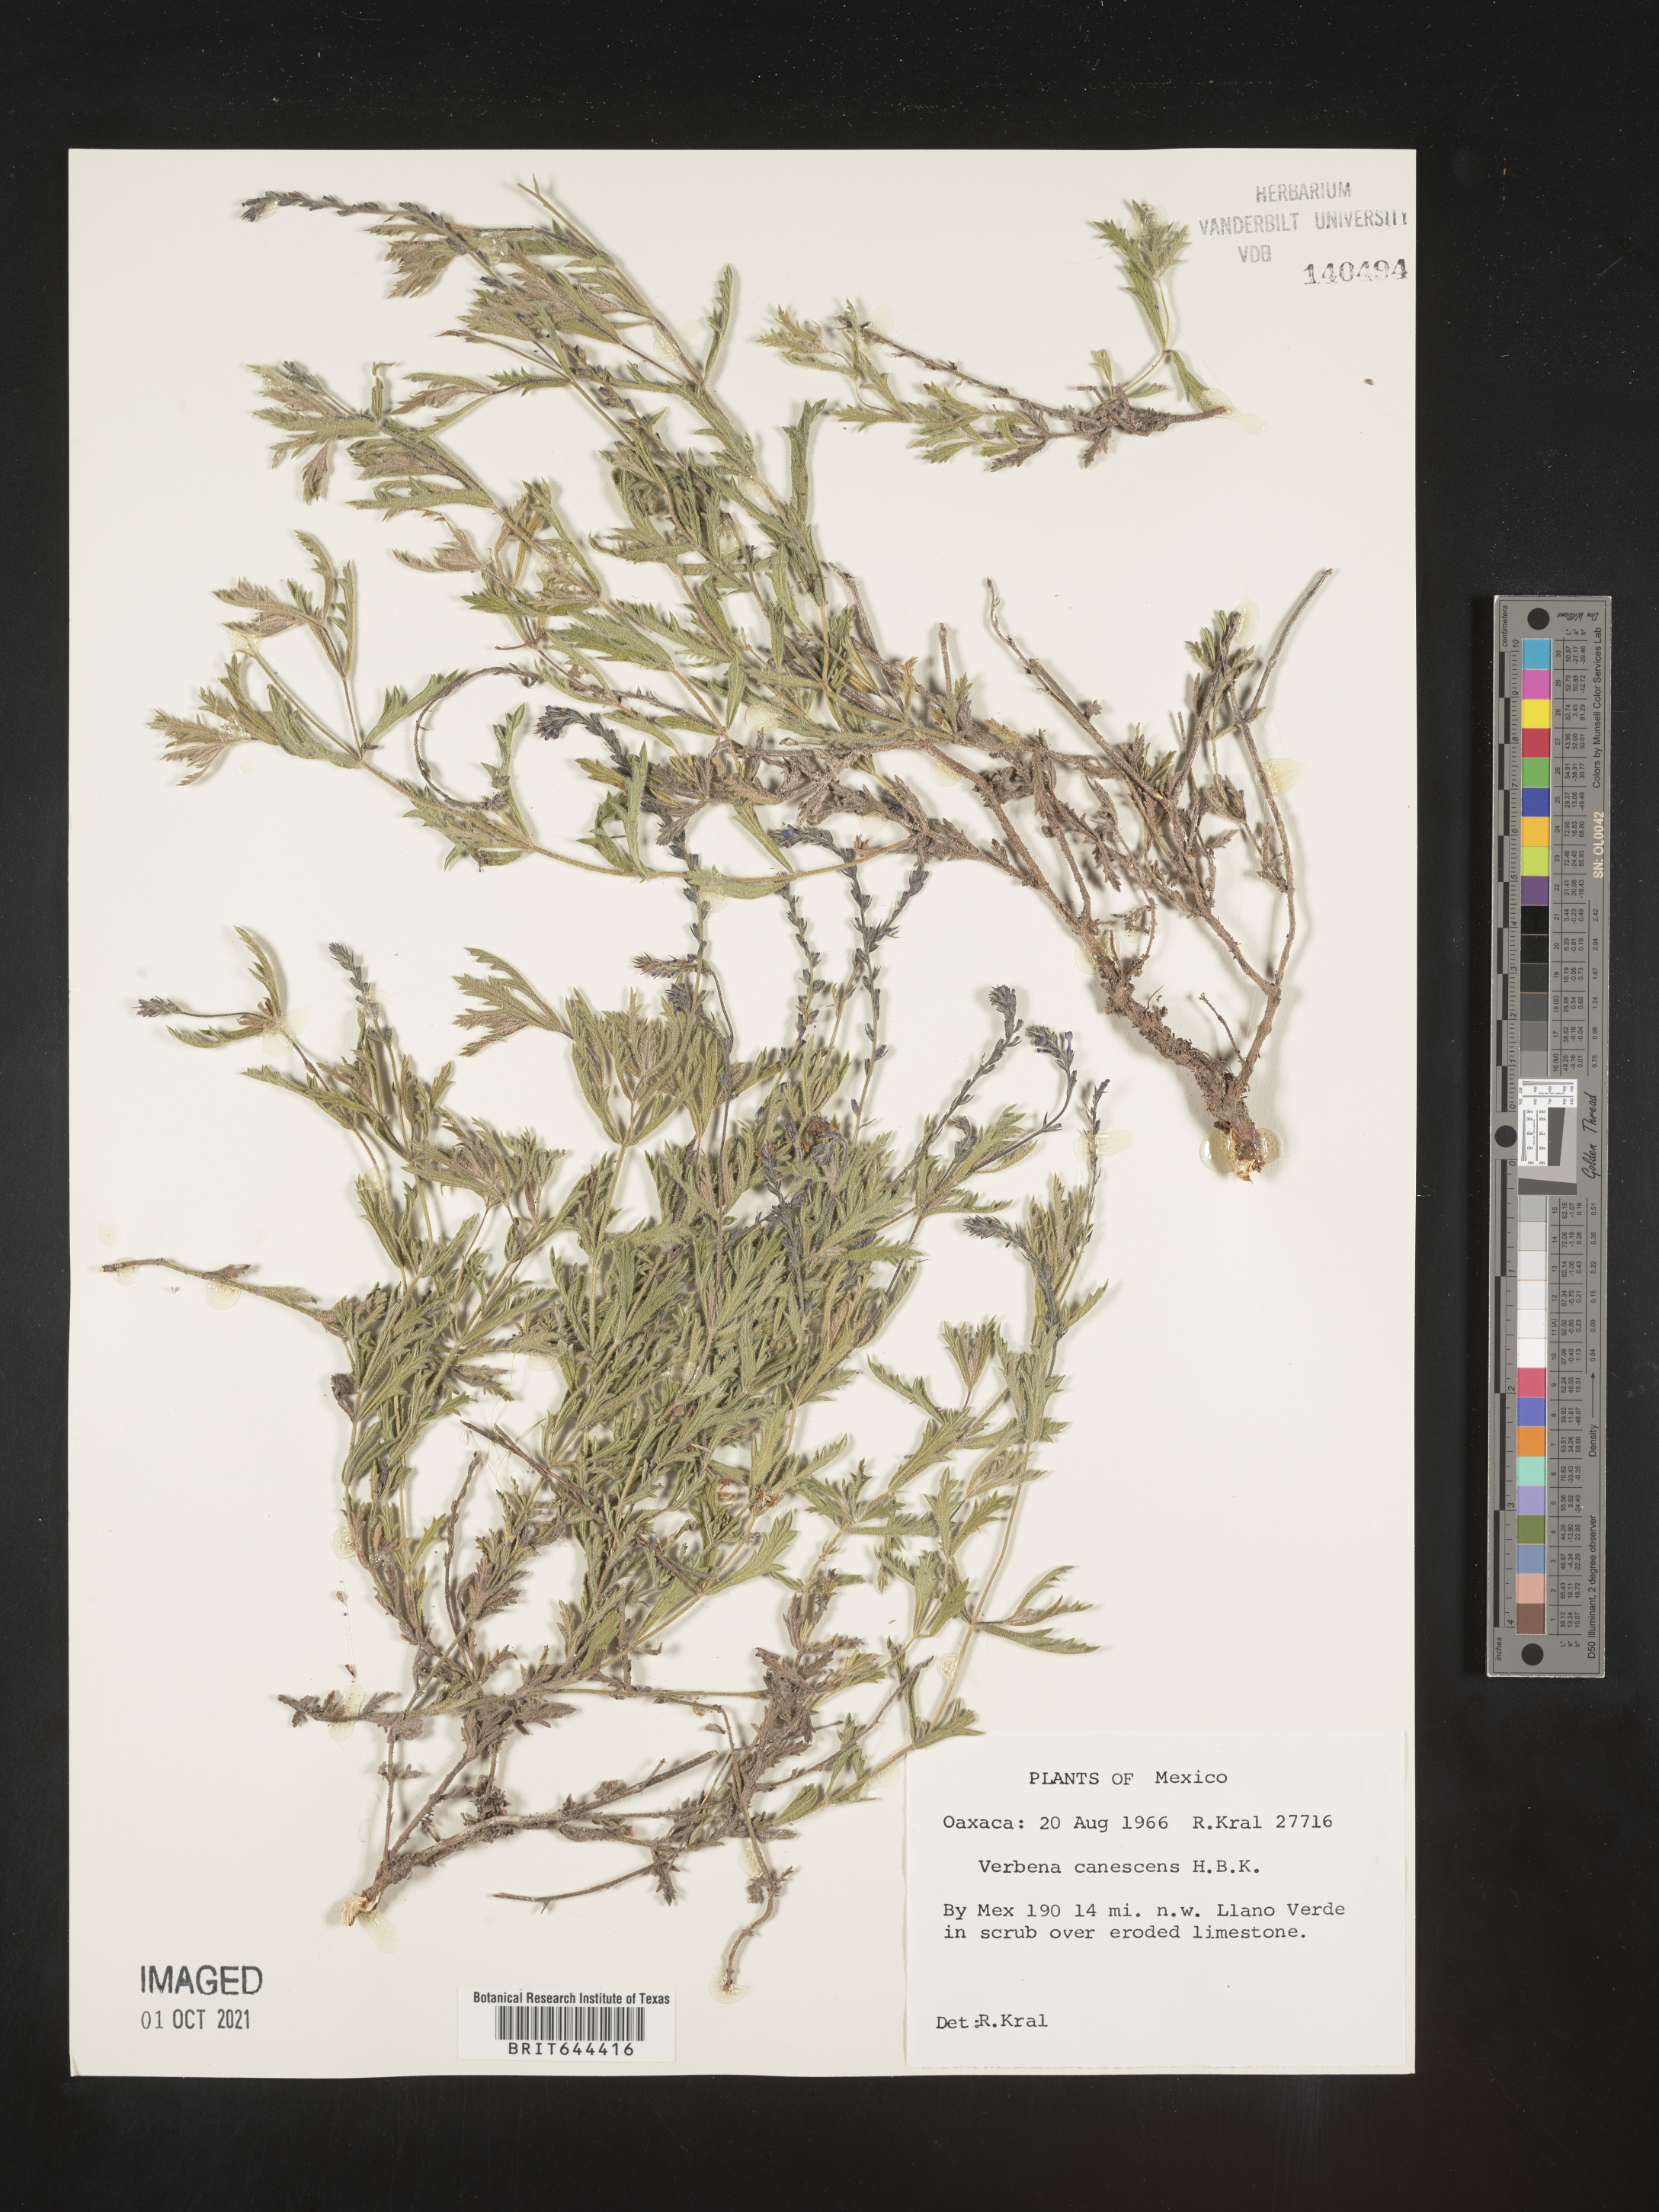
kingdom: Plantae
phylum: Tracheophyta
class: Magnoliopsida
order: Lamiales
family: Verbenaceae
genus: Verbena
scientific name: Verbena
